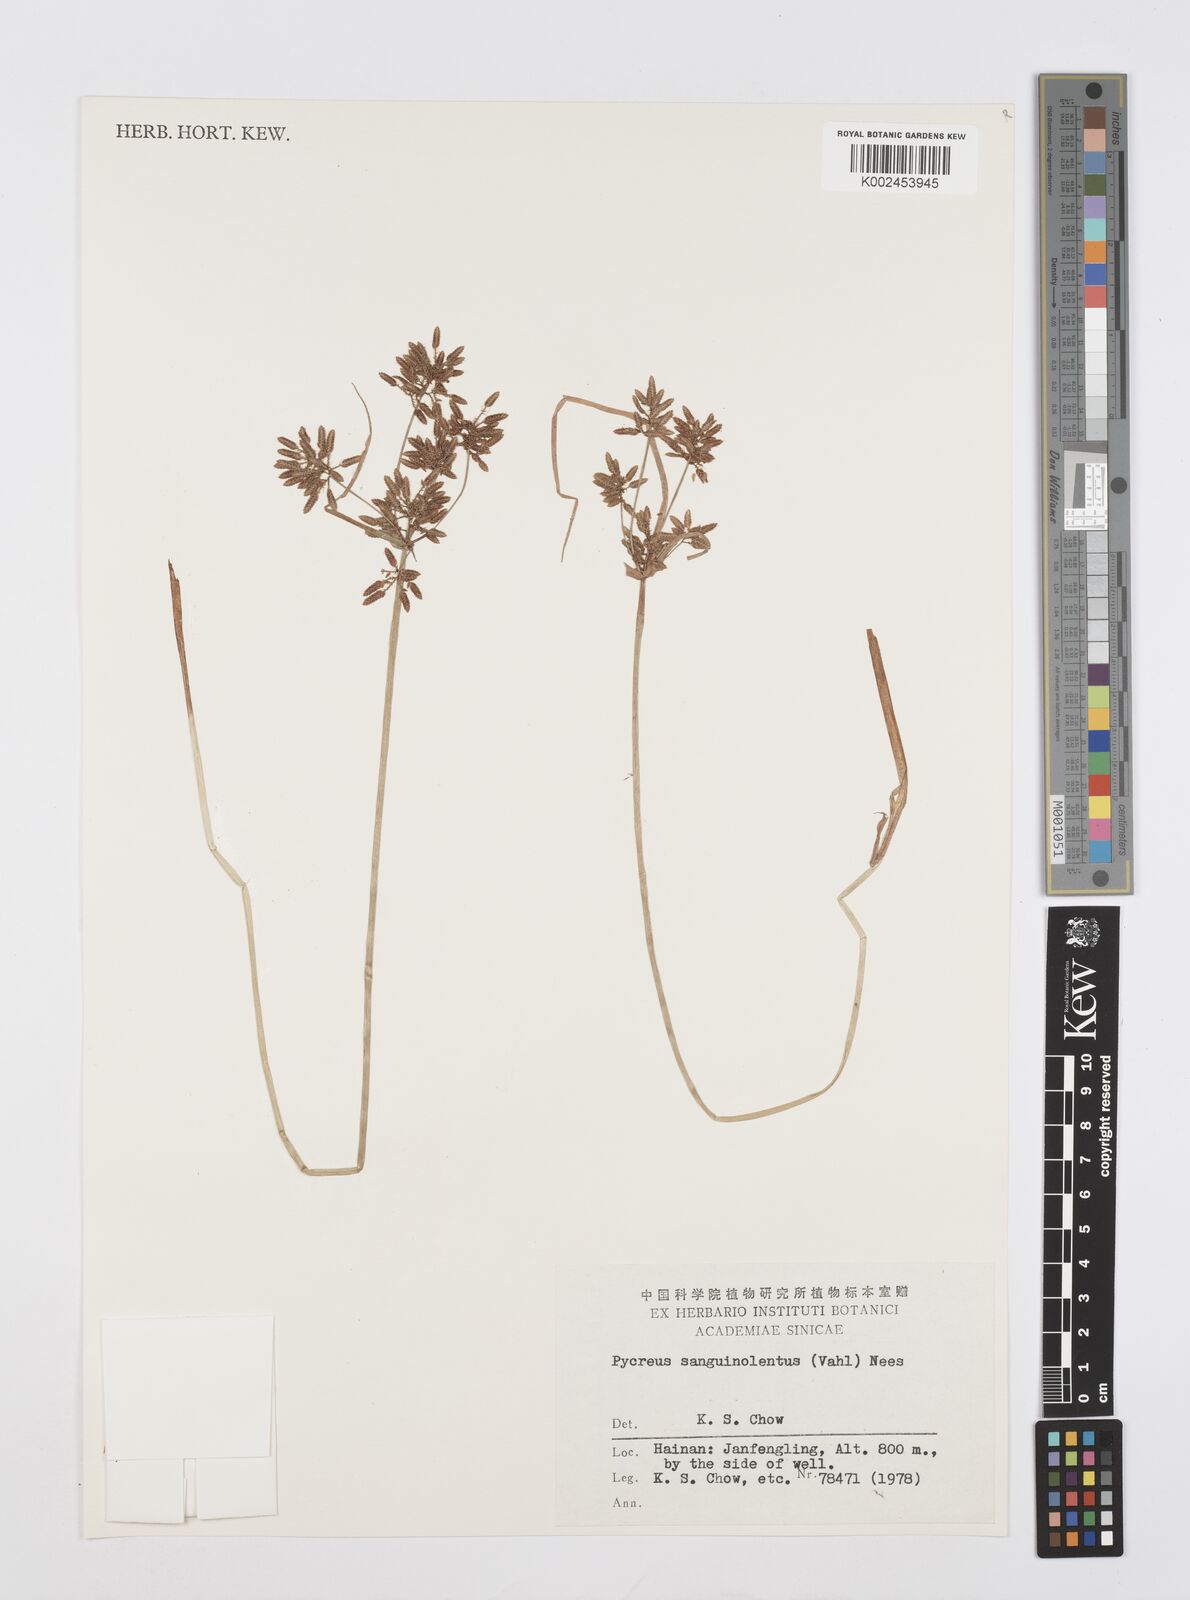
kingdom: Plantae
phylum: Tracheophyta
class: Liliopsida
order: Poales
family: Cyperaceae
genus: Cyperus
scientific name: Cyperus sanguinolentus
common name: Purpleglume flatsedge
